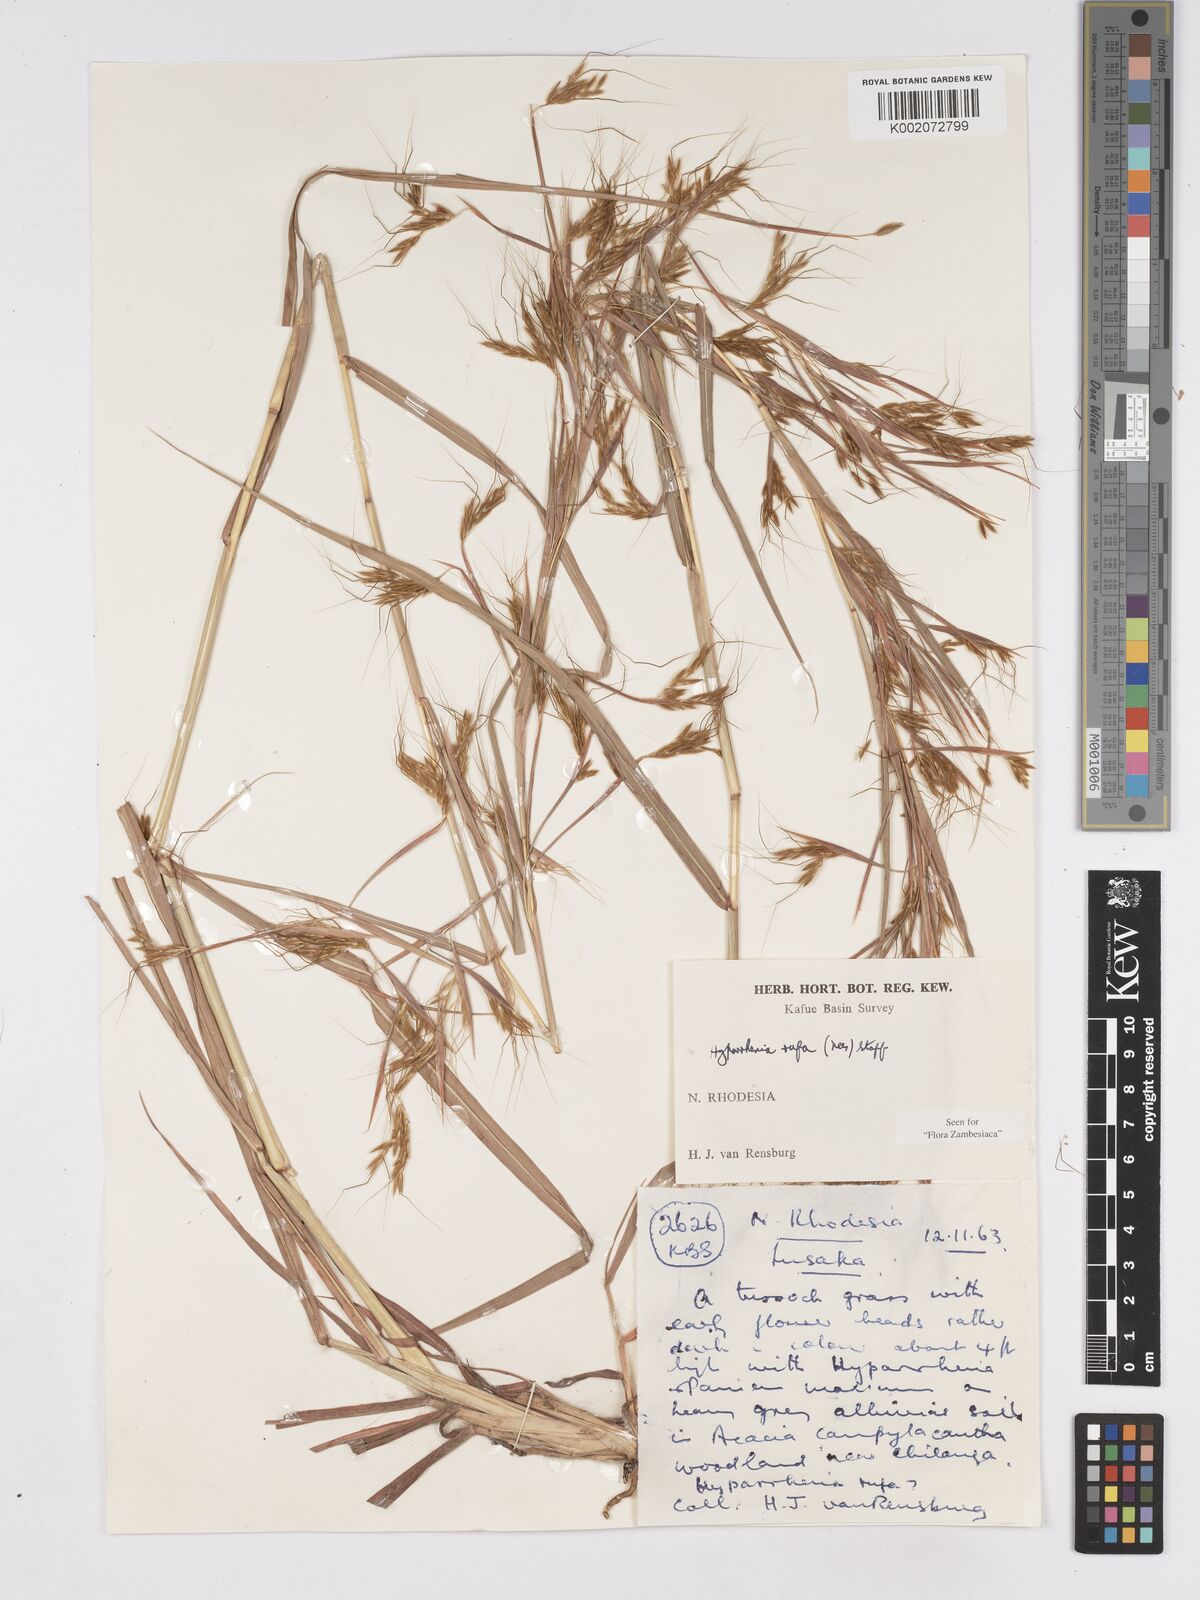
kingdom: Plantae
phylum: Tracheophyta
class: Liliopsida
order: Poales
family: Poaceae
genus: Hyparrhenia
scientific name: Hyparrhenia rufa
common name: Jaraguagrass
